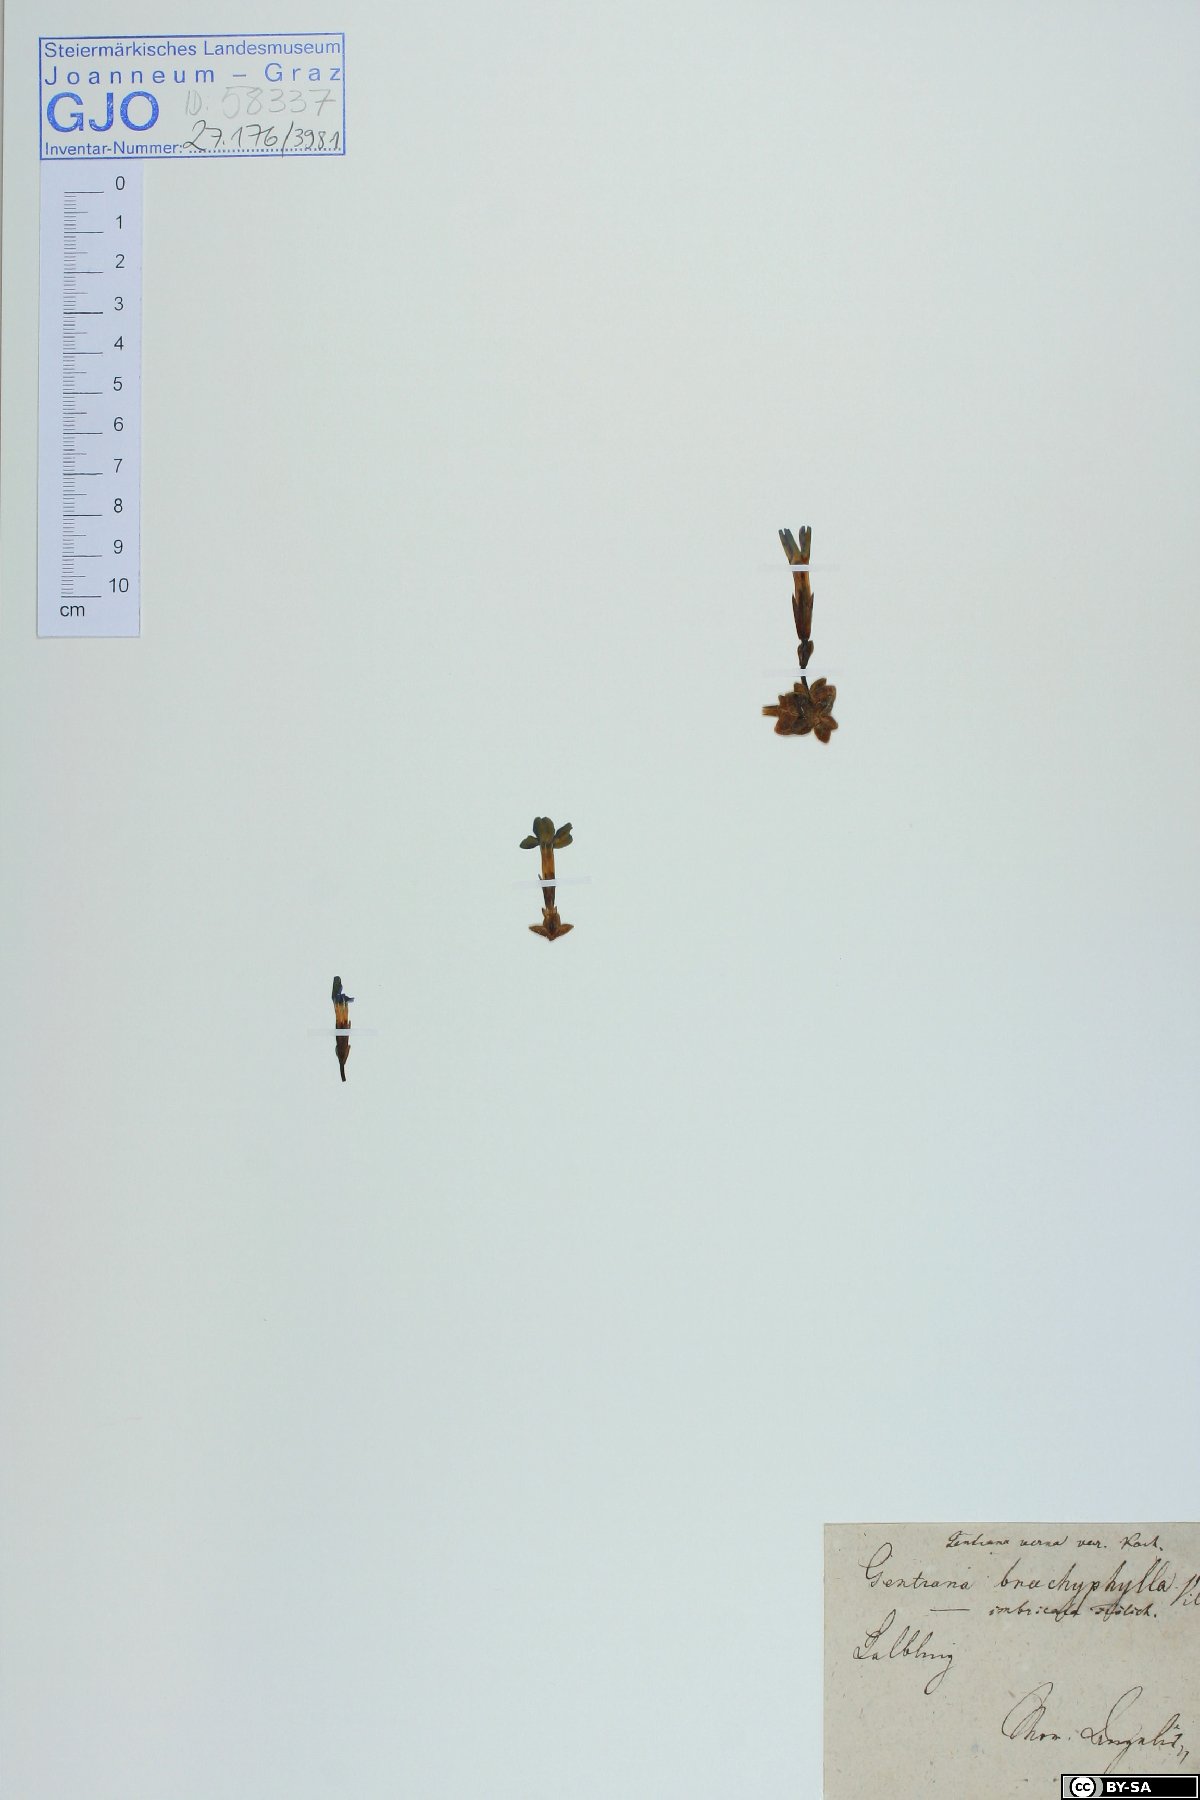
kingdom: Plantae
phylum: Tracheophyta
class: Magnoliopsida
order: Gentianales
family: Gentianaceae
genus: Gentiana
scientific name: Gentiana brachyphylla
